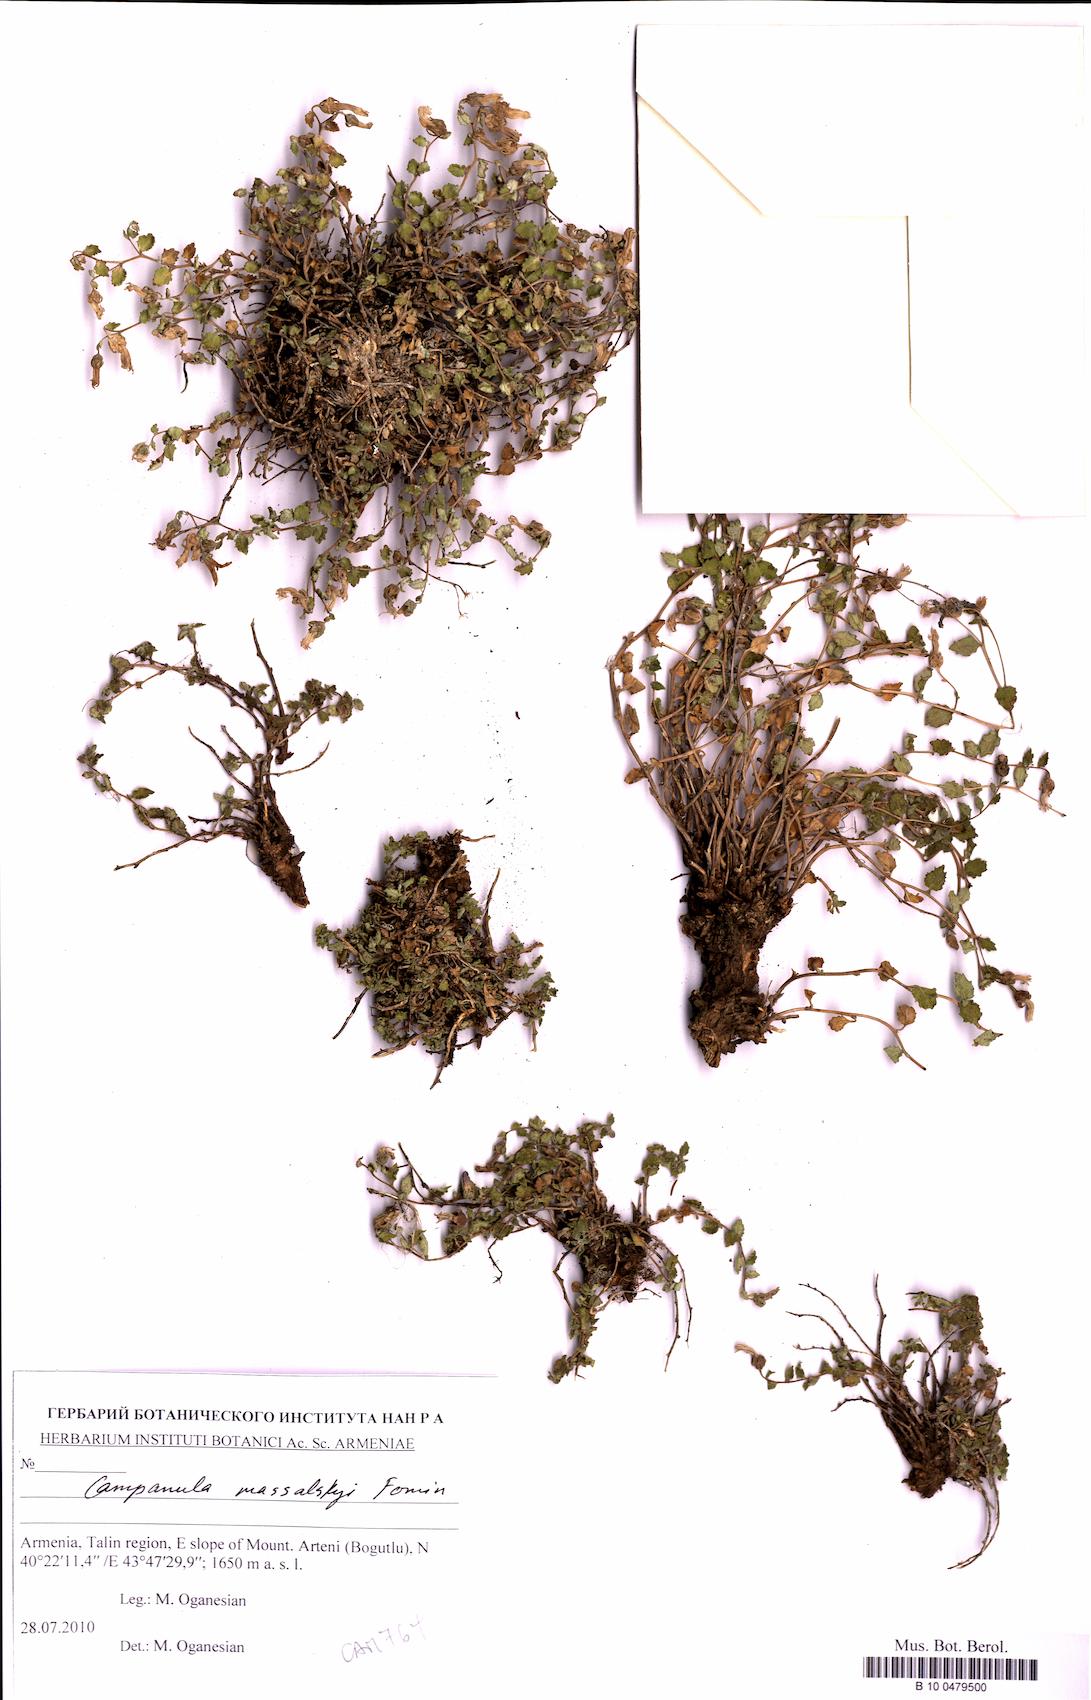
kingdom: Plantae
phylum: Tracheophyta
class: Magnoliopsida
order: Asterales
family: Campanulaceae
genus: Campanula
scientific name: Campanula massalskyi
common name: Massalsky's campanula
